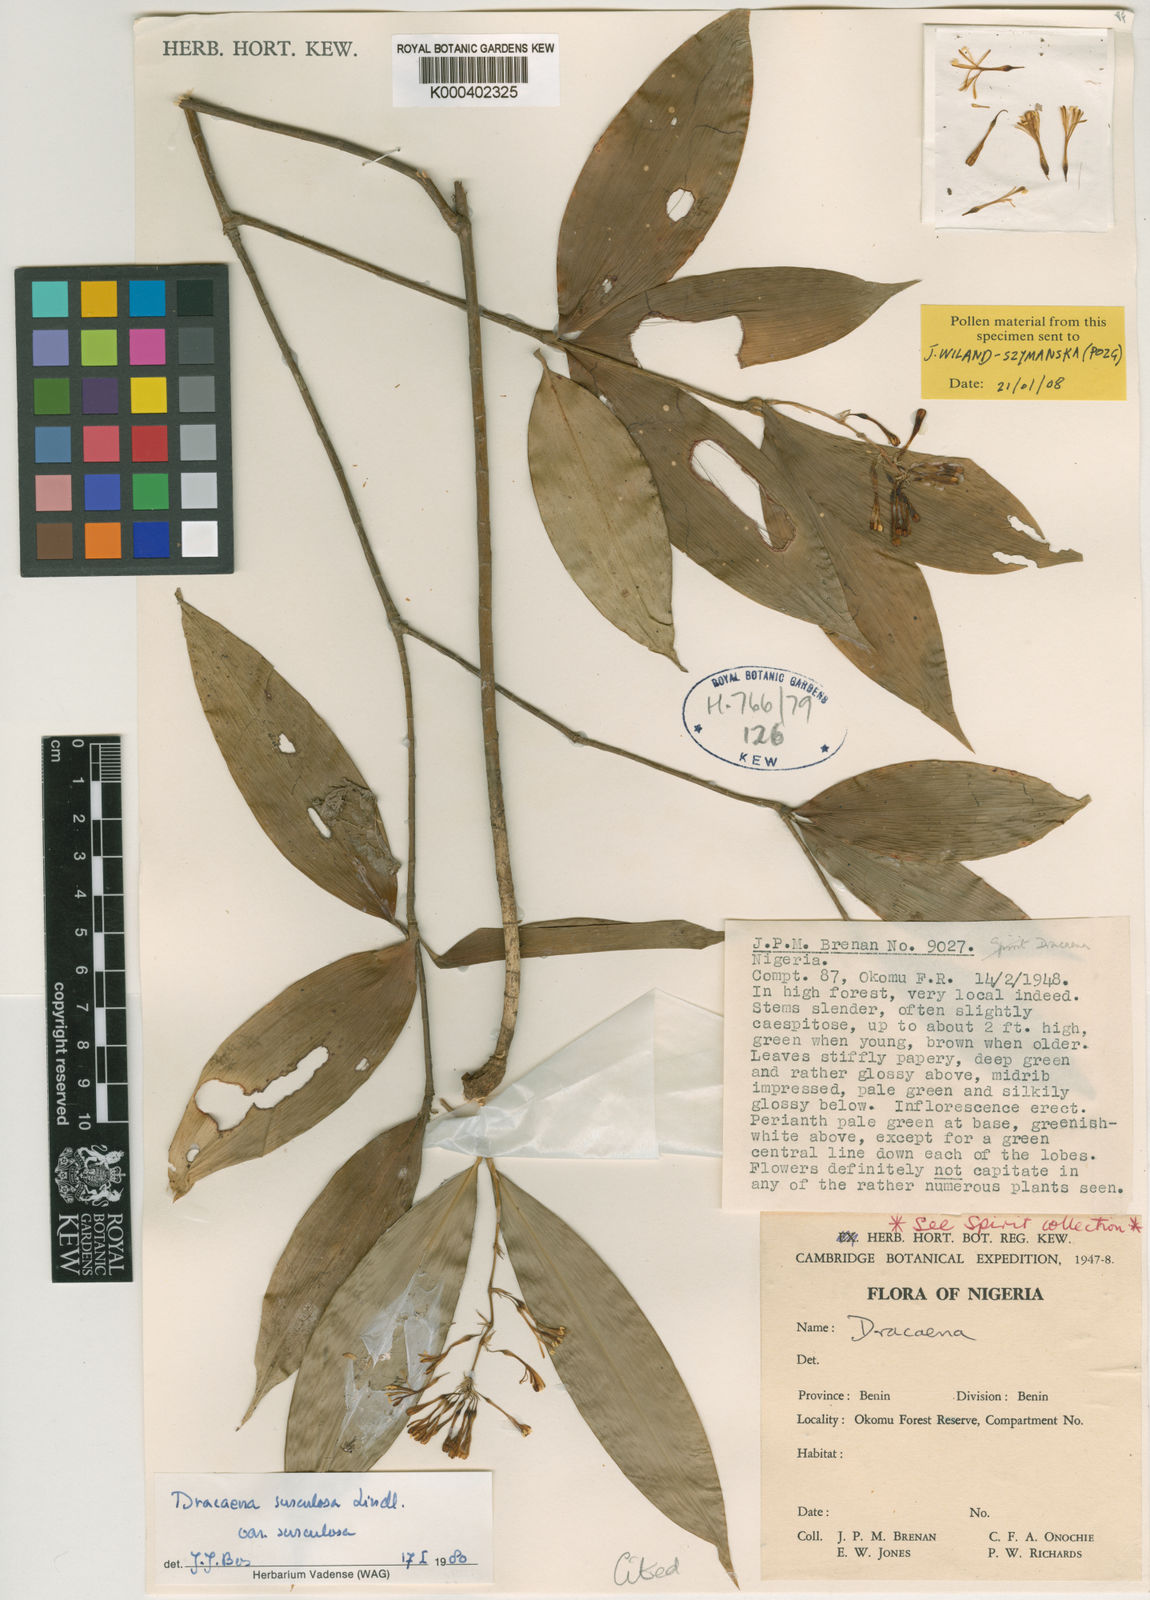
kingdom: Plantae
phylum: Tracheophyta
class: Liliopsida
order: Asparagales
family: Asparagaceae
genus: Dracaena
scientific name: Dracaena surculosa
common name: Spotted dracaena
